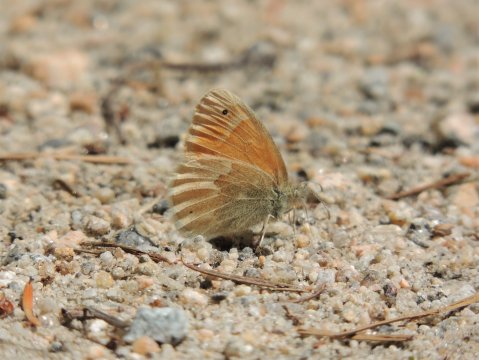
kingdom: Animalia
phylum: Arthropoda
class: Insecta
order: Lepidoptera
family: Nymphalidae
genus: Coenonympha
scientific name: Coenonympha tullia
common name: Large Heath
